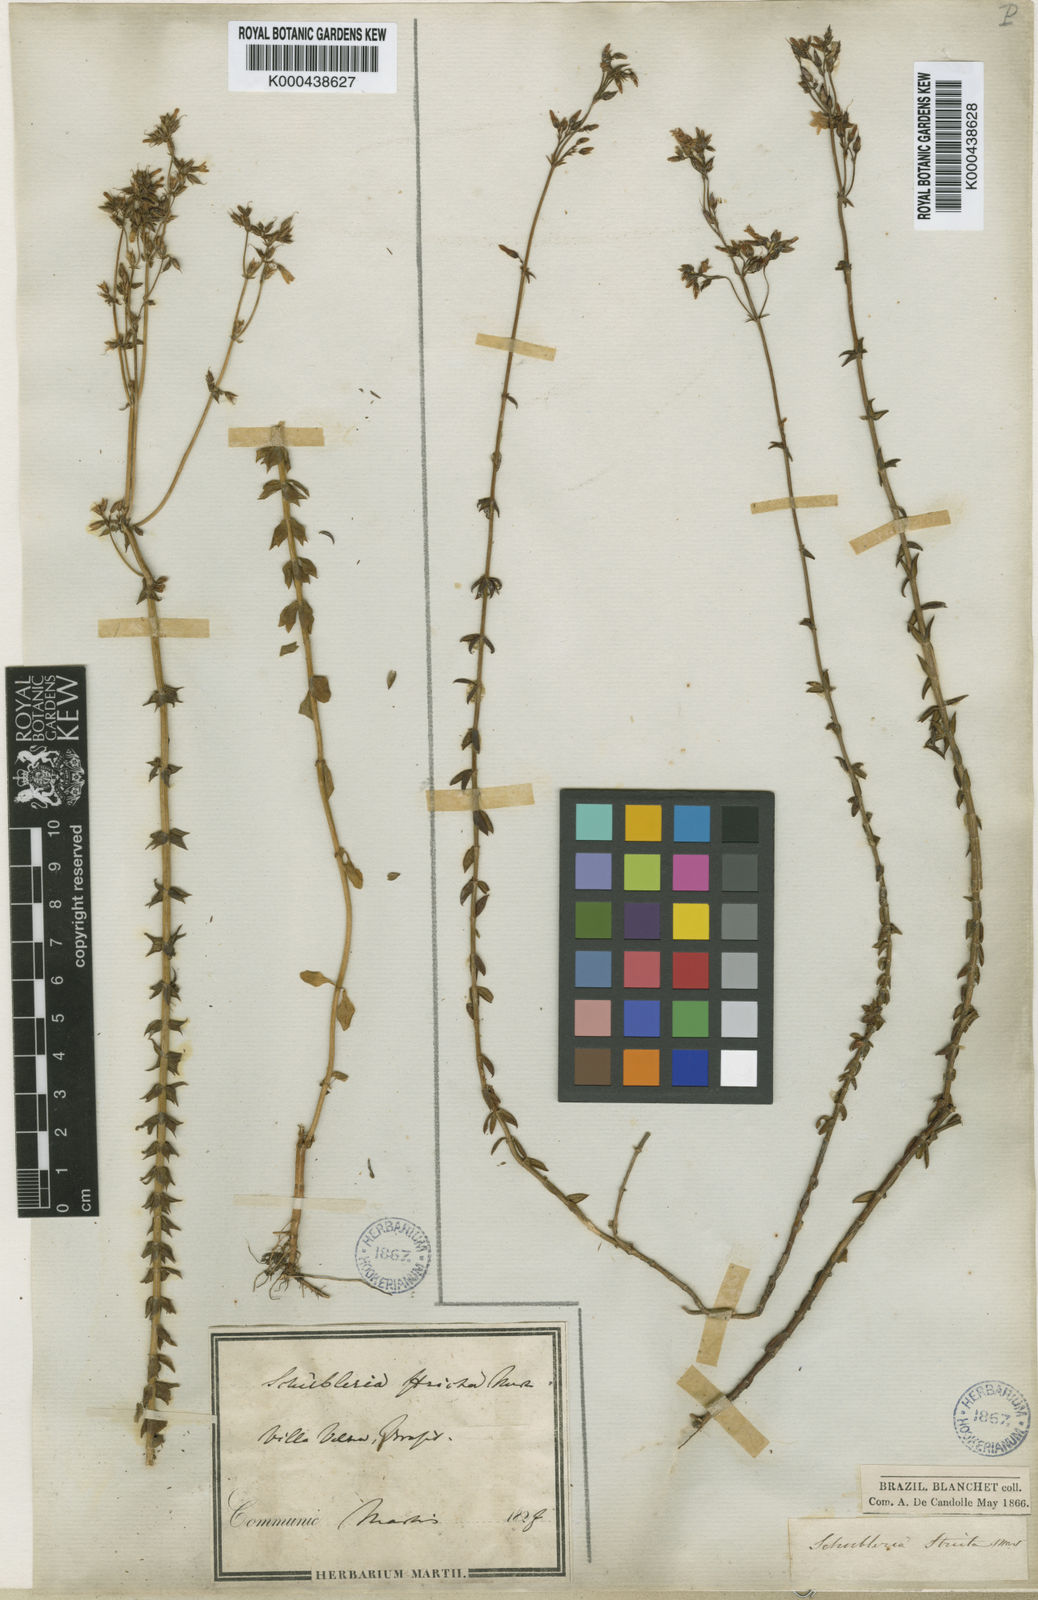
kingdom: Plantae
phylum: Tracheophyta
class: Magnoliopsida
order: Gentianales
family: Gentianaceae
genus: Curtia
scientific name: Curtia verticillaris
